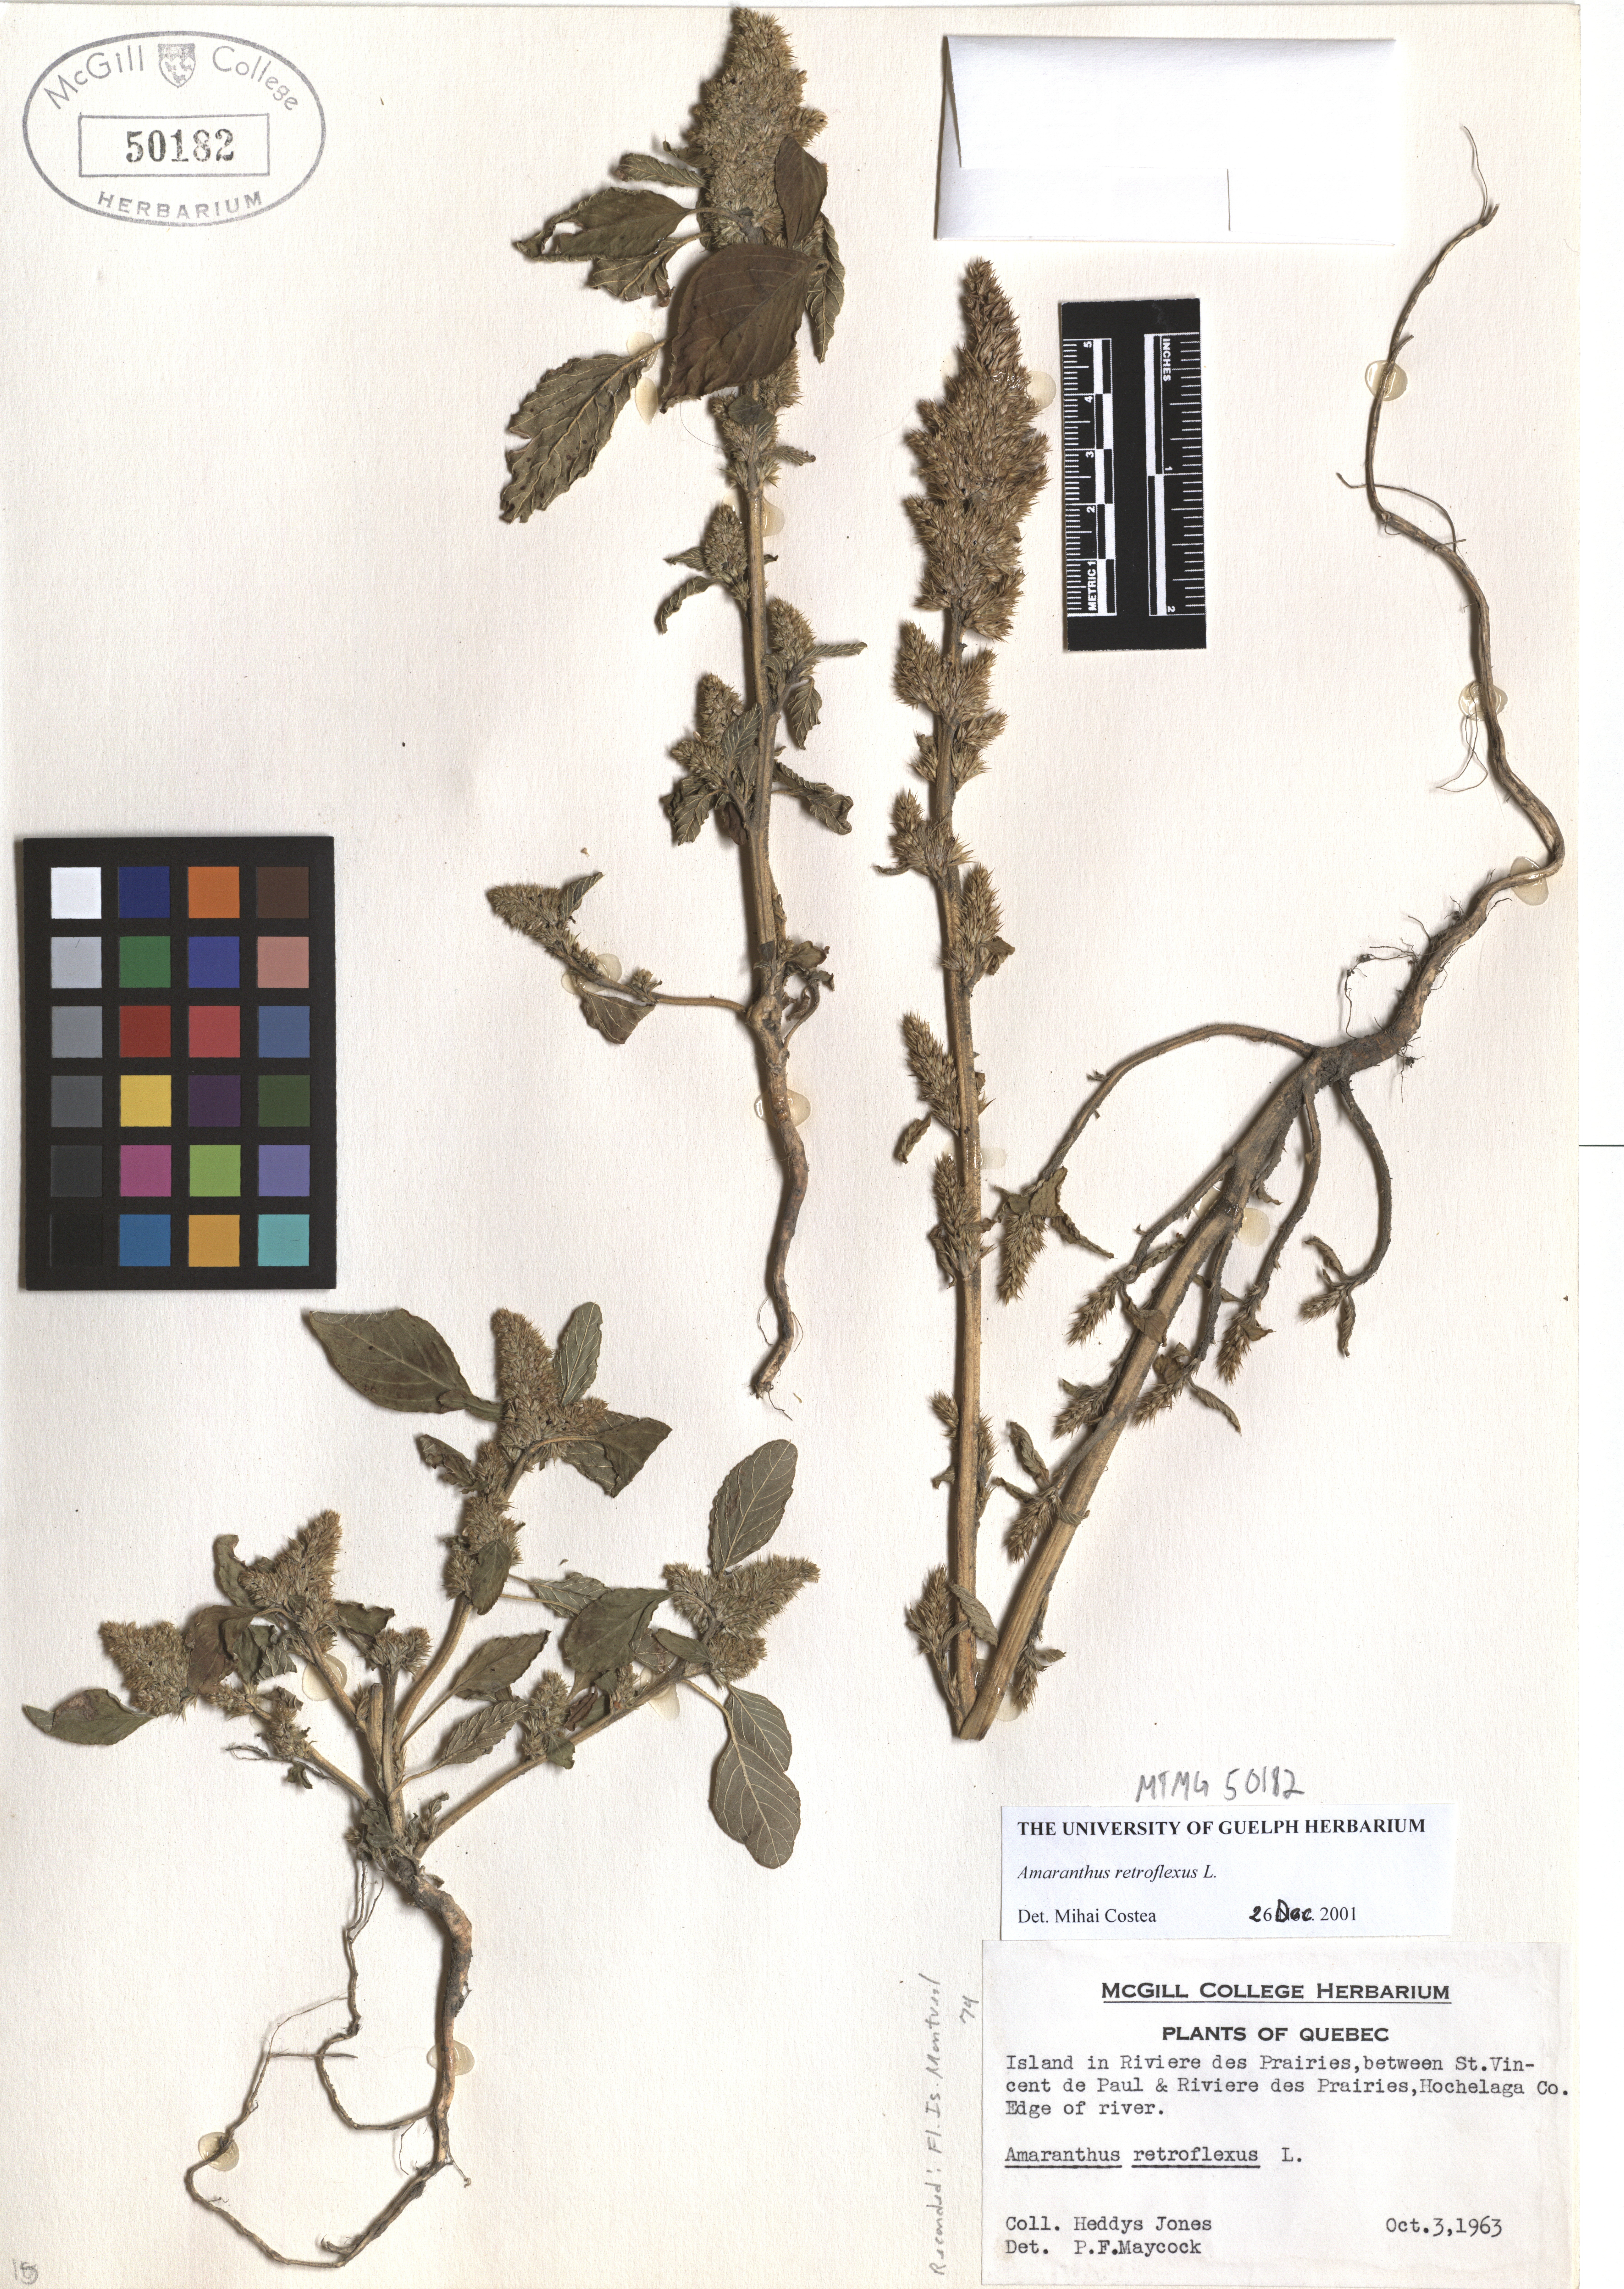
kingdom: Plantae
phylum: Tracheophyta
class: Magnoliopsida
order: Caryophyllales
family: Amaranthaceae
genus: Amaranthus
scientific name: Amaranthus retroflexus
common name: Redroot amaranth
